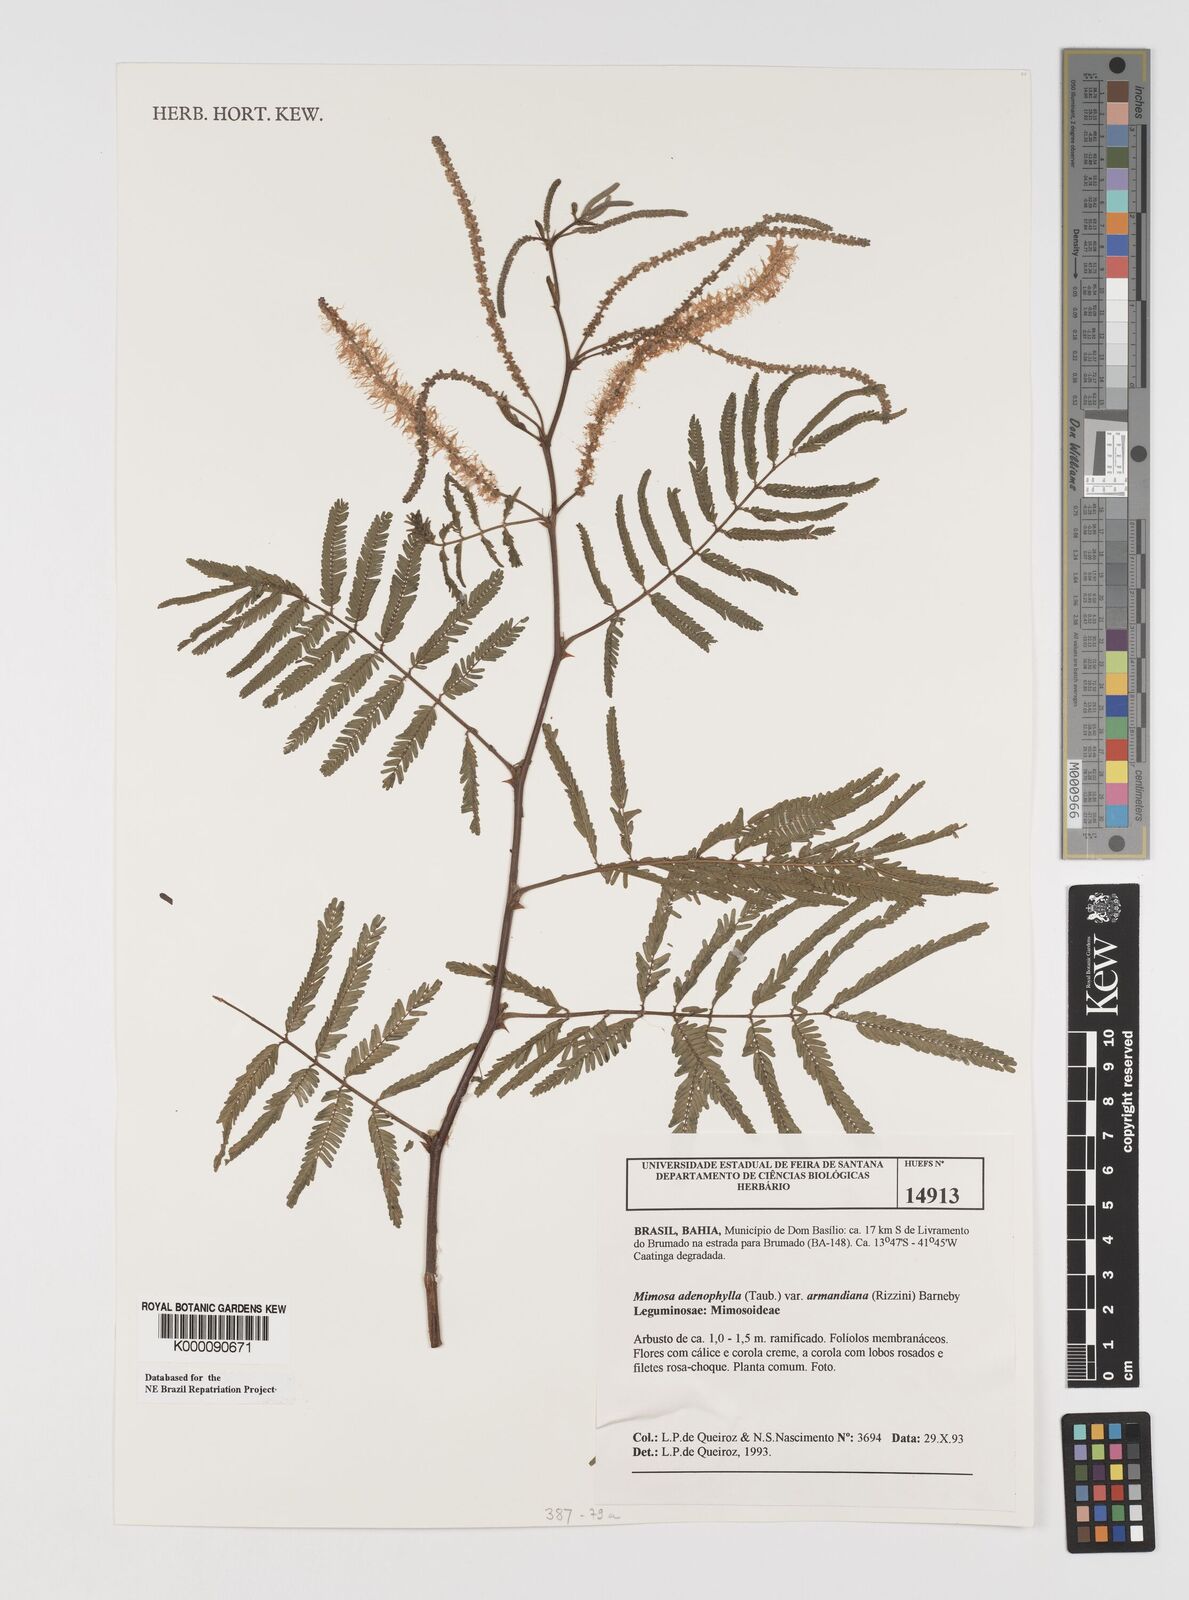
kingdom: Plantae
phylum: Tracheophyta
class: Magnoliopsida
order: Fabales
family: Fabaceae
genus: Mimosa
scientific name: Mimosa pteridifolia
